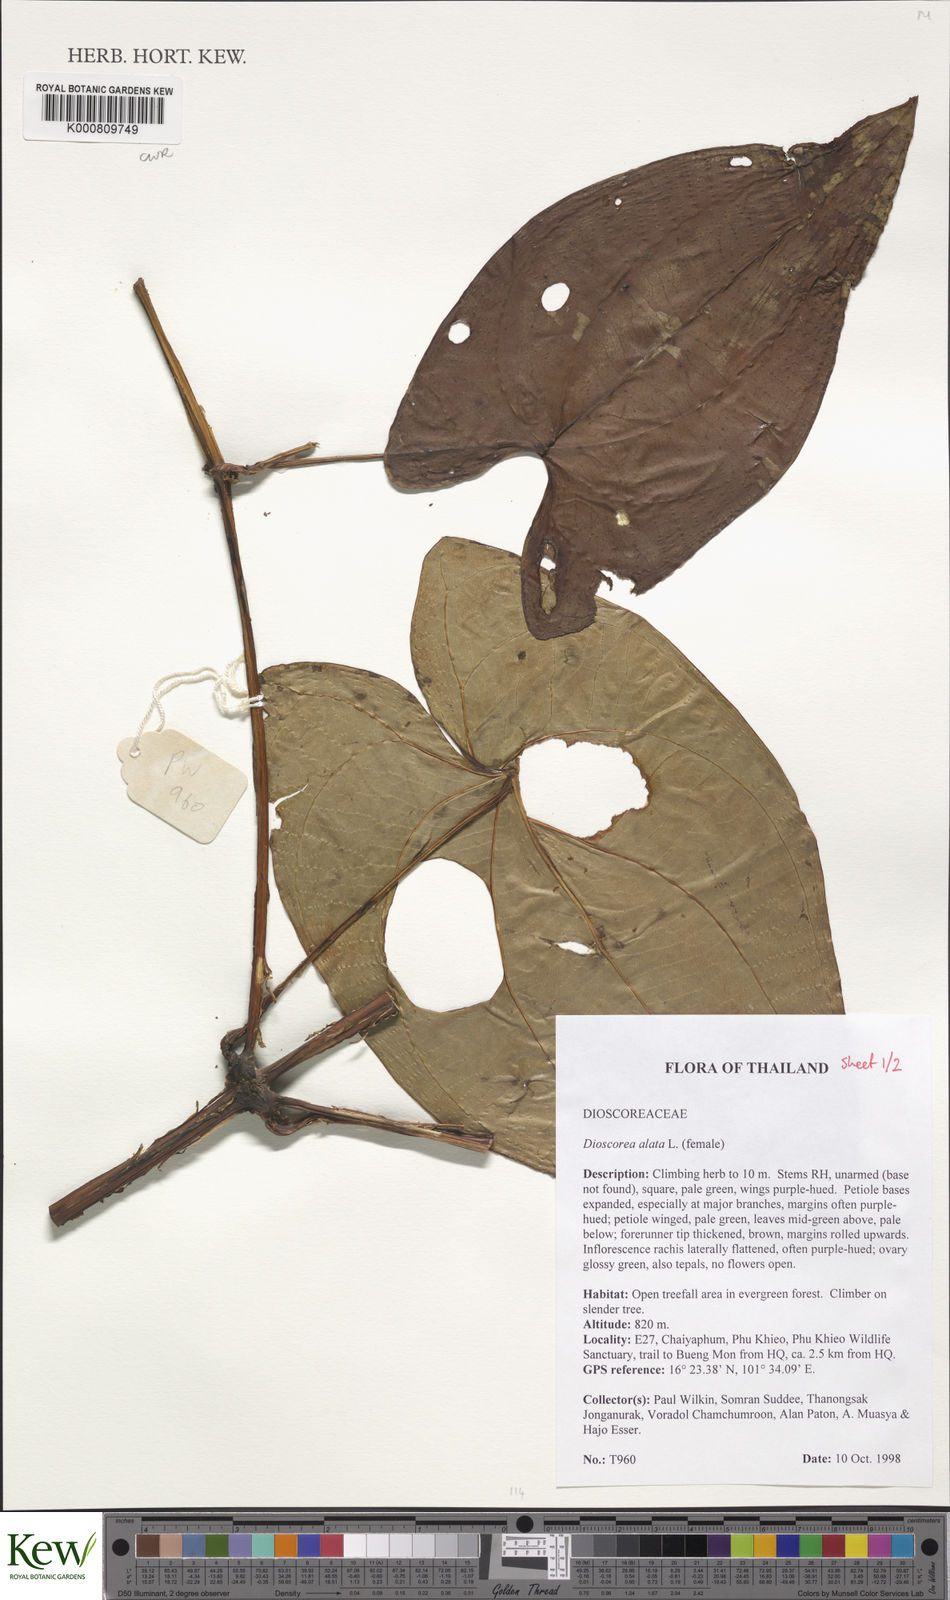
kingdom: Plantae
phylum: Tracheophyta
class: Liliopsida
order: Dioscoreales
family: Dioscoreaceae
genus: Dioscorea
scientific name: Dioscorea alata
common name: Water yam
